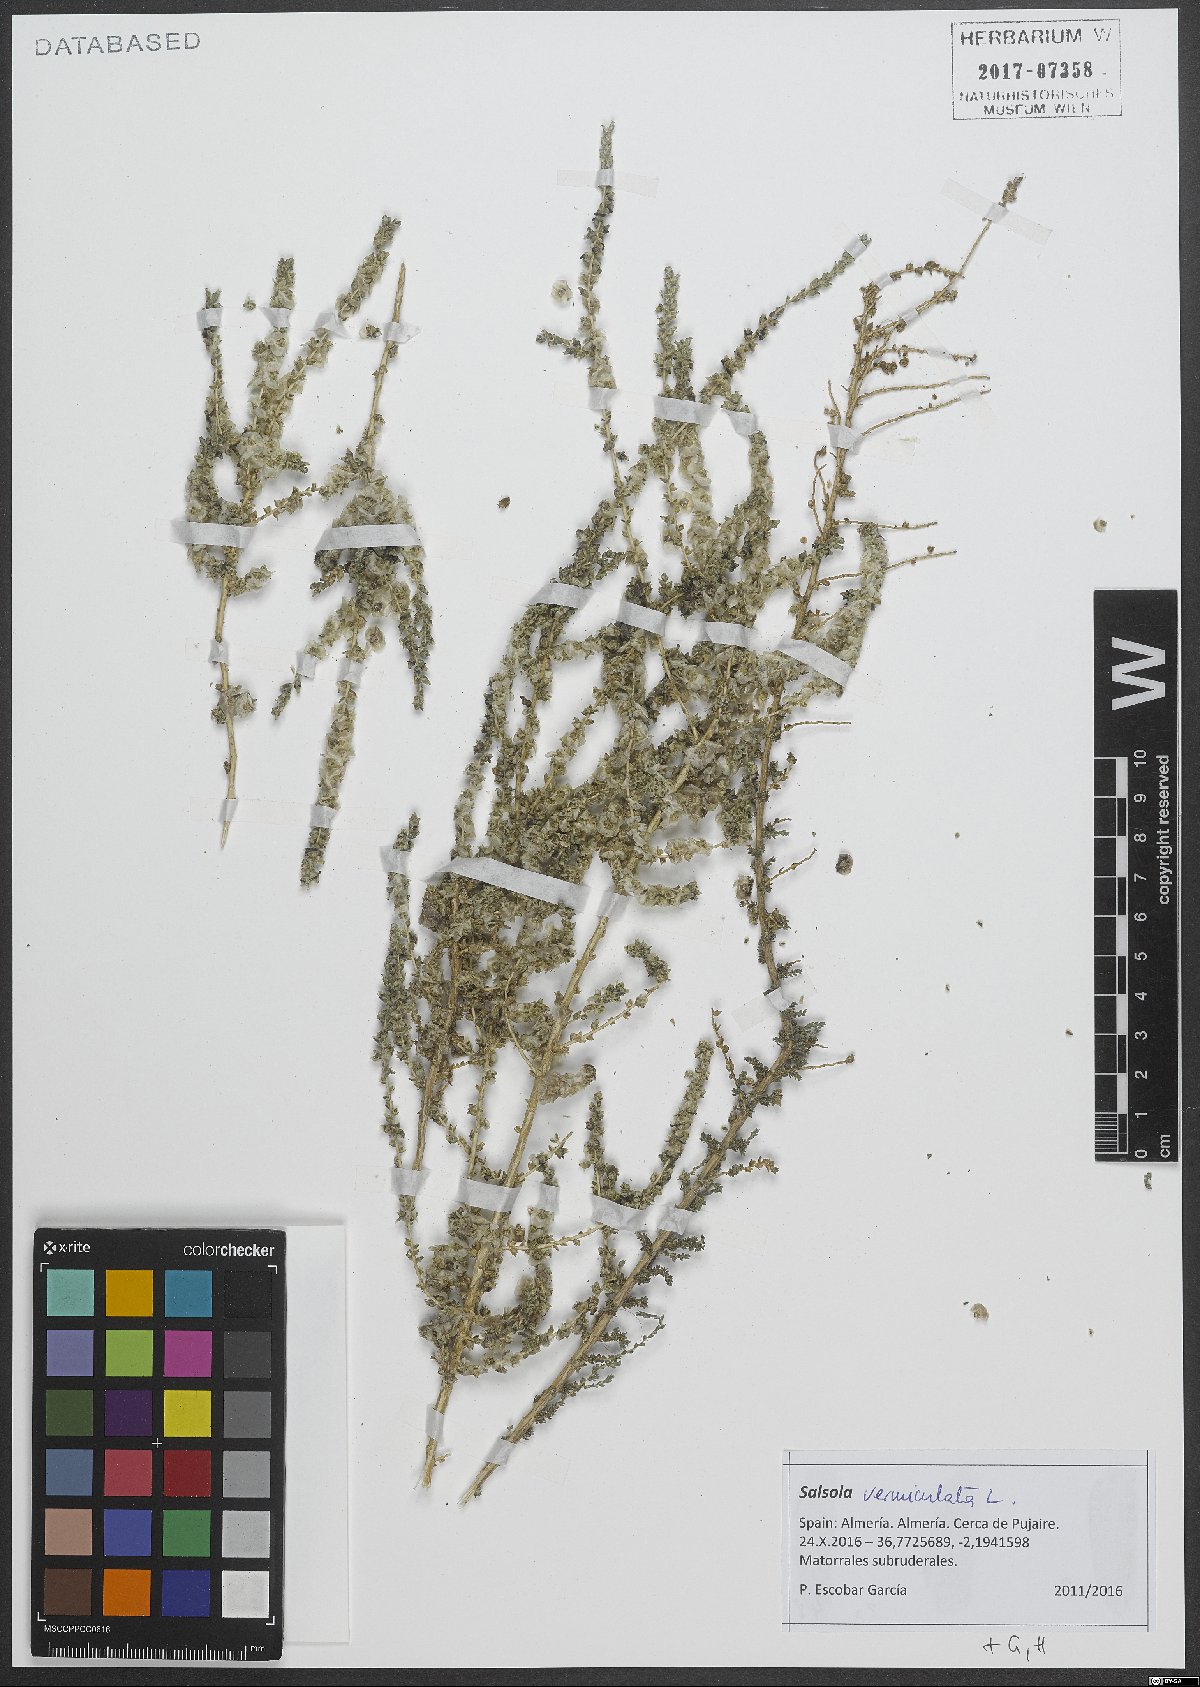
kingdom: Plantae
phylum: Tracheophyta
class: Magnoliopsida
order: Caryophyllales
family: Amaranthaceae
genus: Nitrosalsola
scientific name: Nitrosalsola vermiculata
